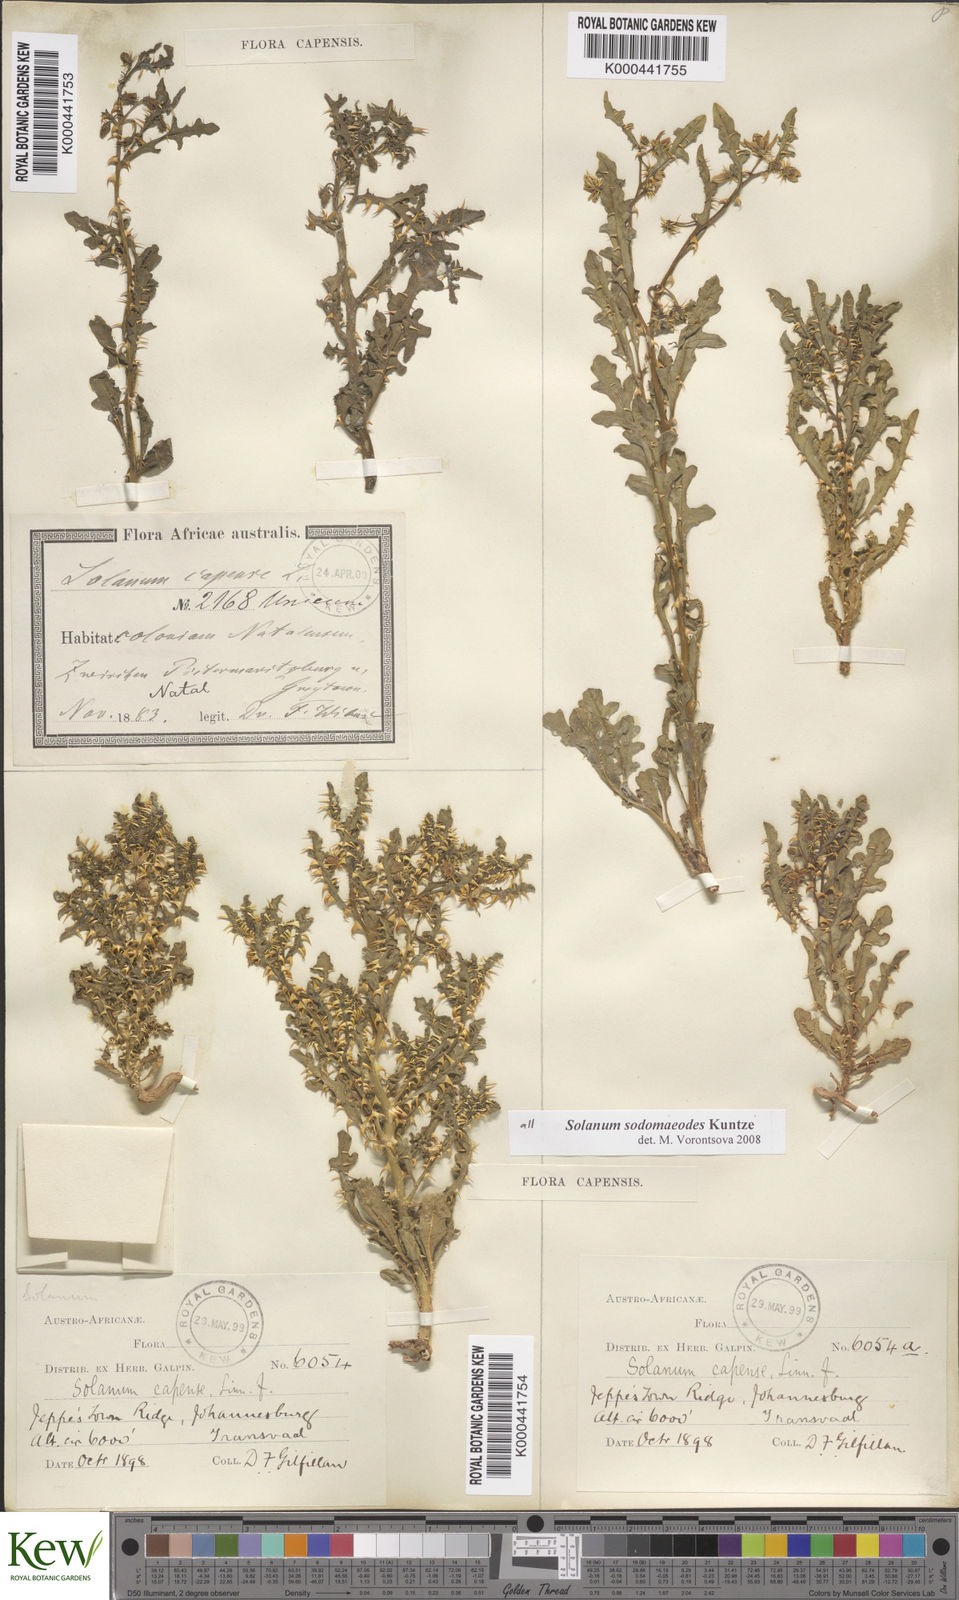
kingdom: Plantae
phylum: Tracheophyta
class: Magnoliopsida
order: Solanales
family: Solanaceae
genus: Solanum
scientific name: Solanum
